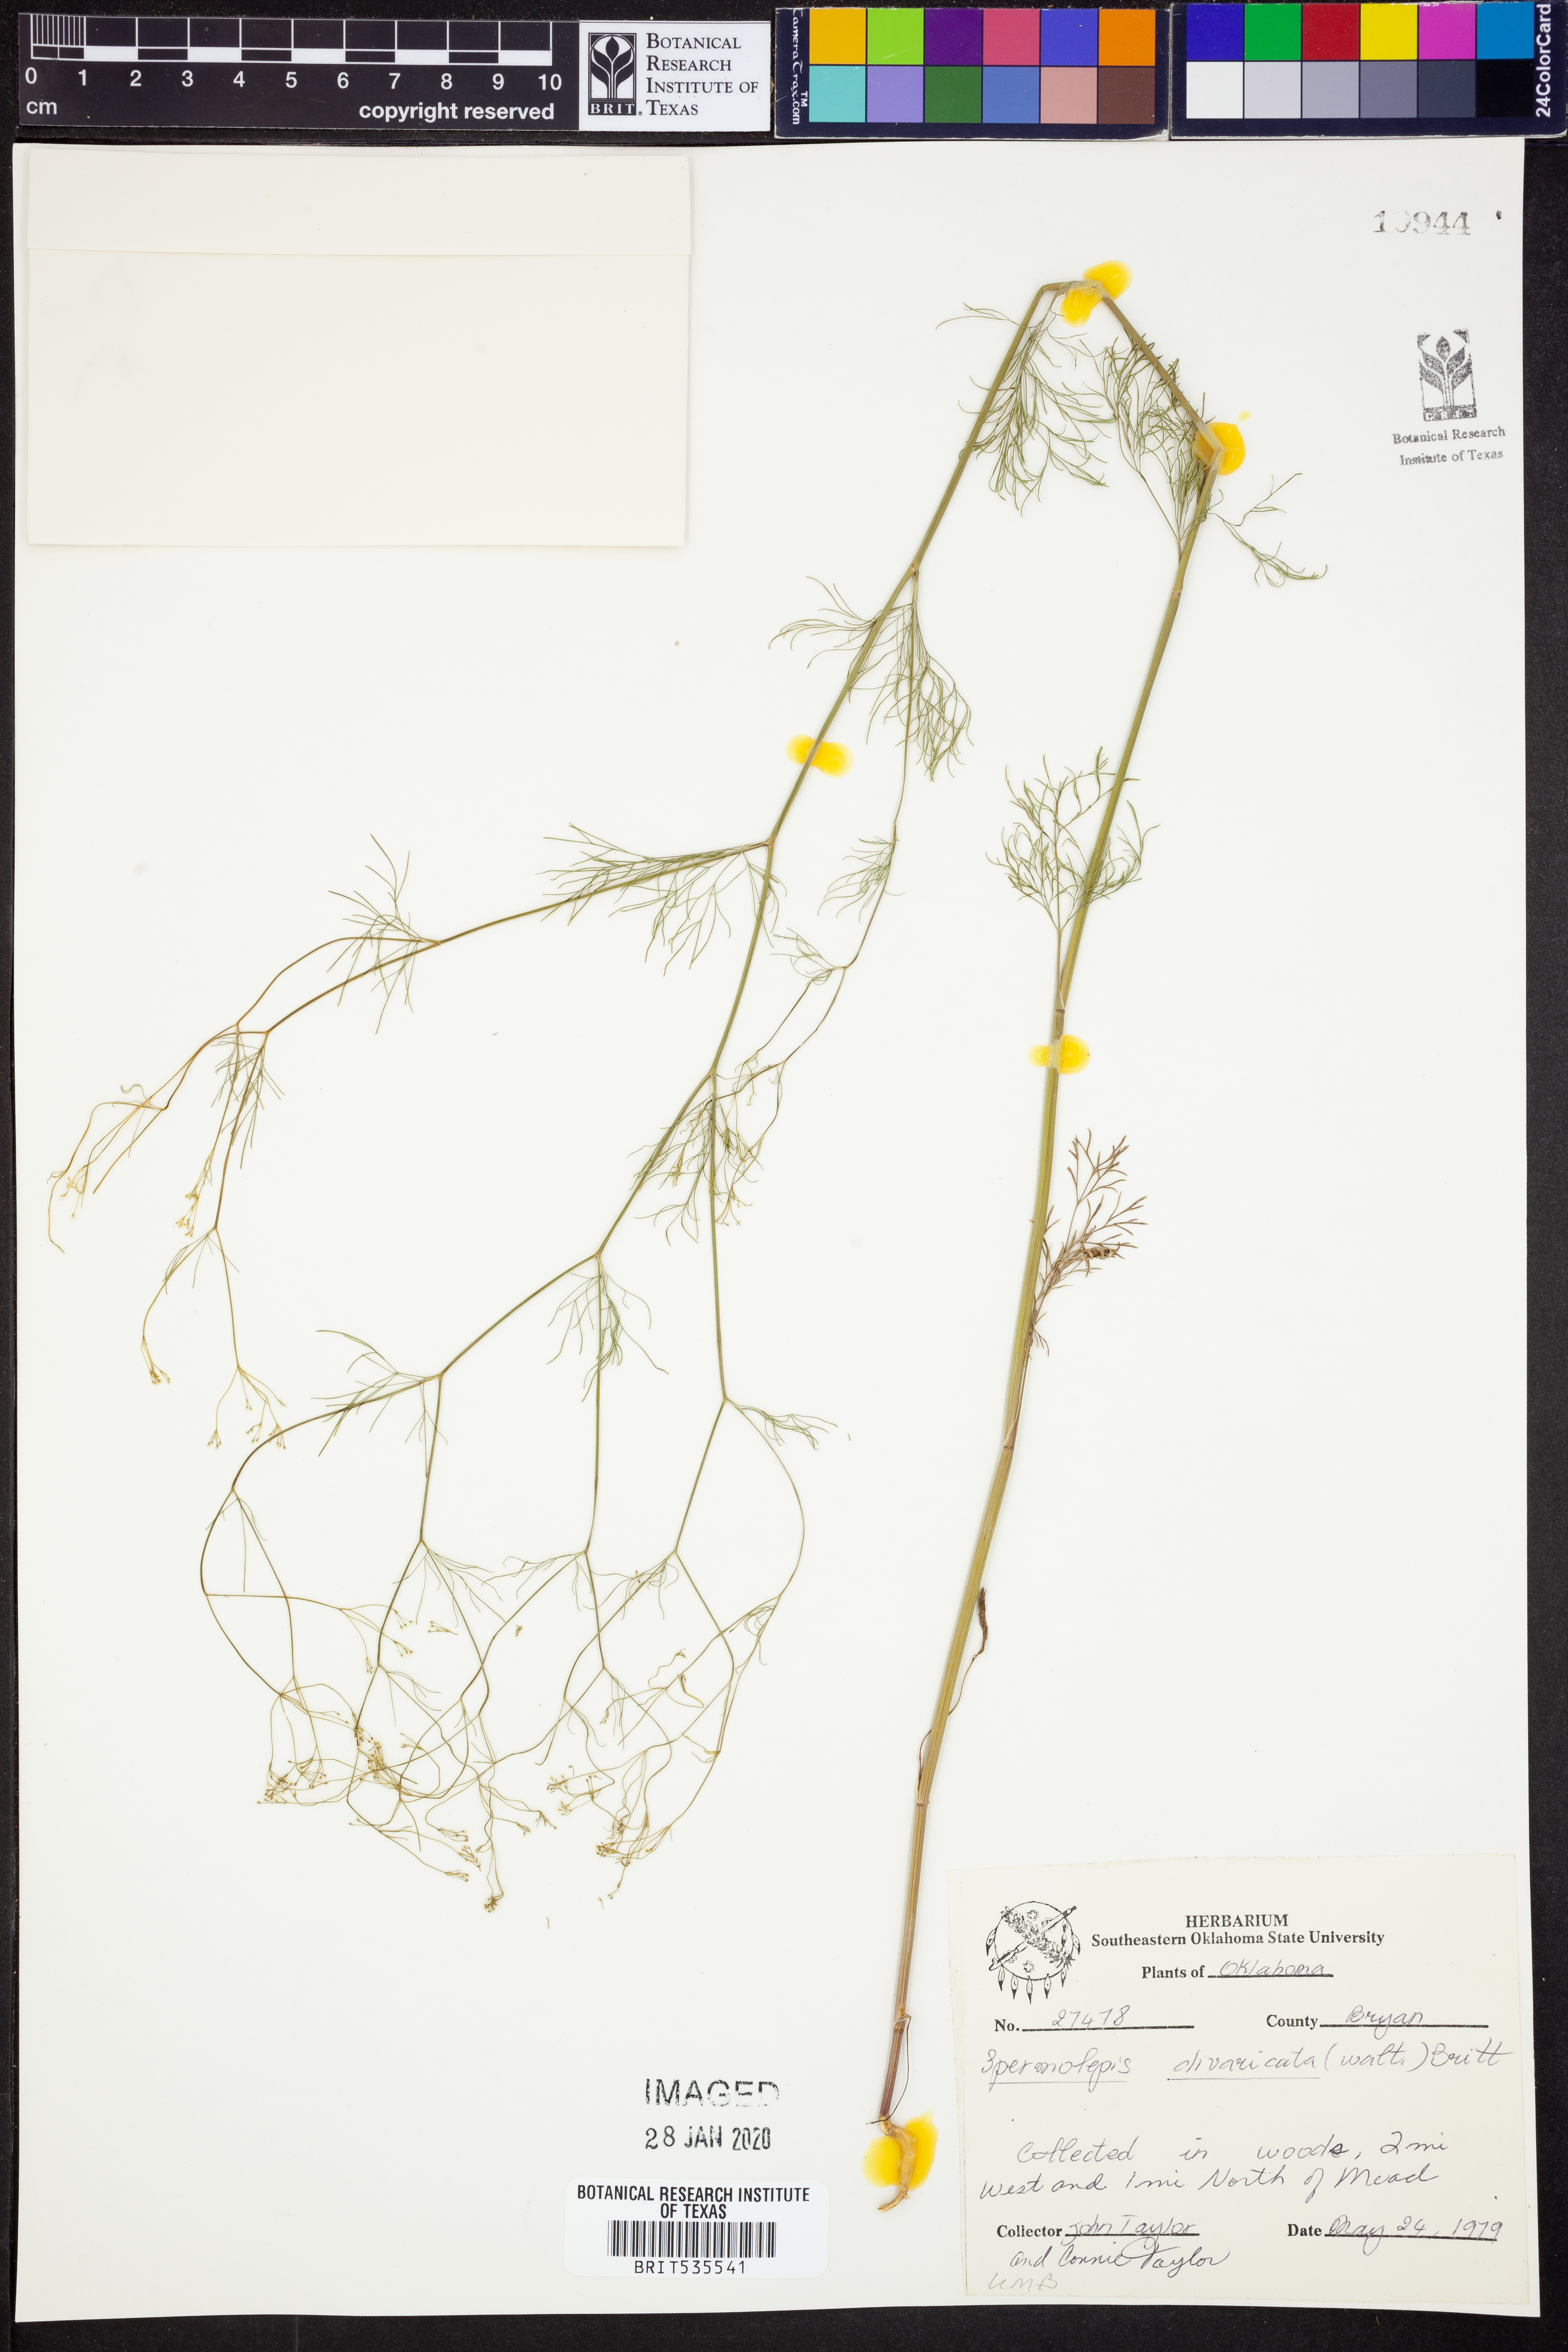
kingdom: Plantae
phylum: Tracheophyta
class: Magnoliopsida
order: Apiales
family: Apiaceae
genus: Spermolepis
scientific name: Spermolepis divaricata
